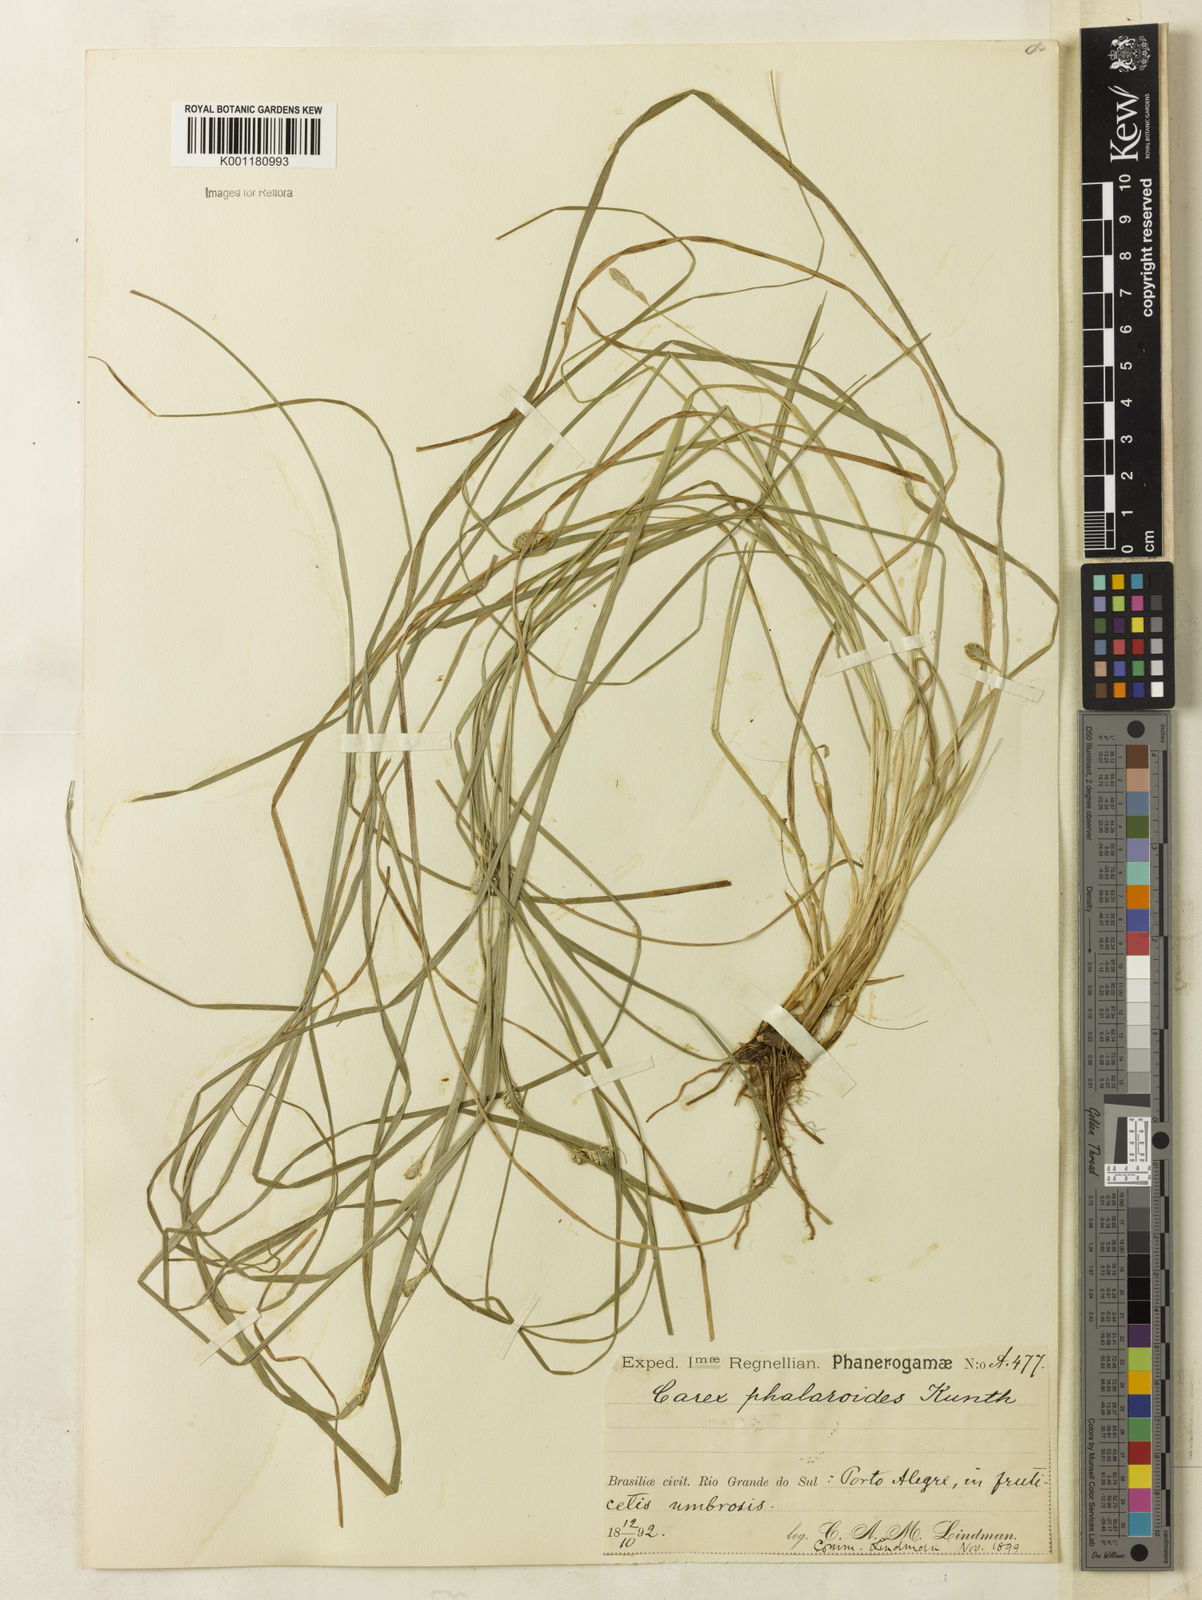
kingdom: Plantae
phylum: Tracheophyta
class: Liliopsida
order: Poales
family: Cyperaceae
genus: Carex
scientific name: Carex phalaroides
